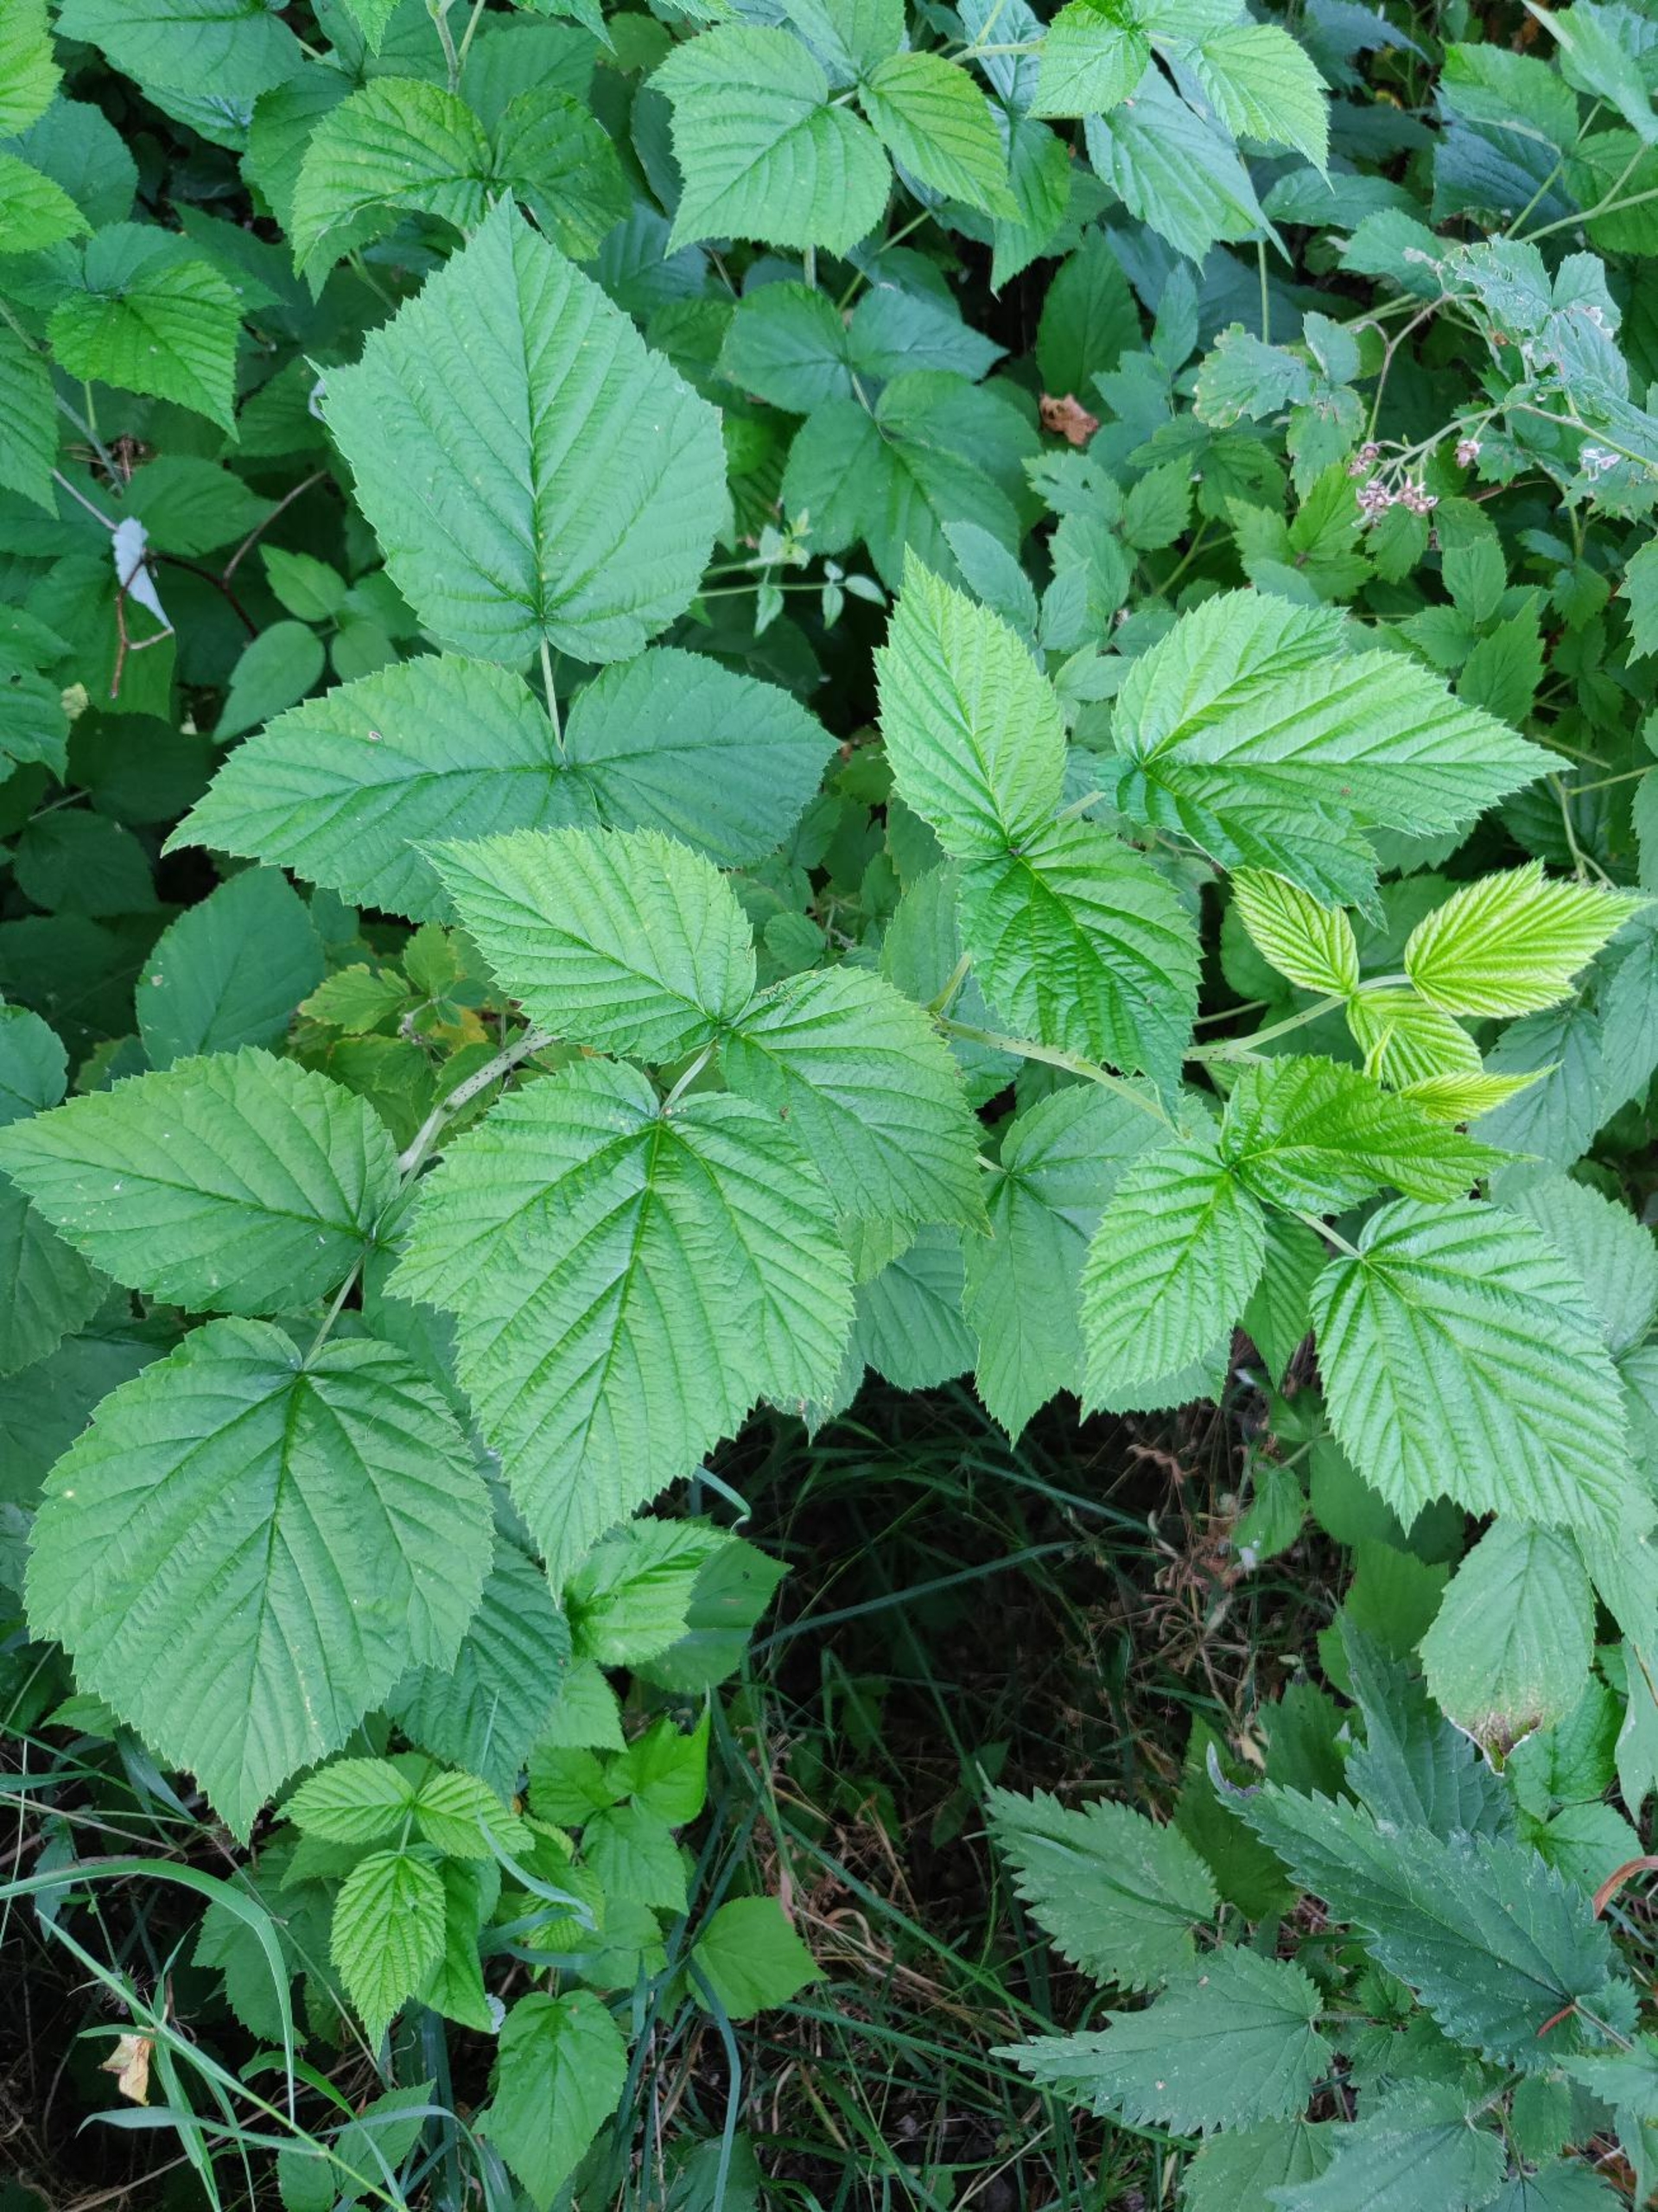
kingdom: Plantae
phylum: Tracheophyta
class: Magnoliopsida
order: Rosales
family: Rosaceae
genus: Rubus
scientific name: Rubus idaeus
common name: Hindbær
